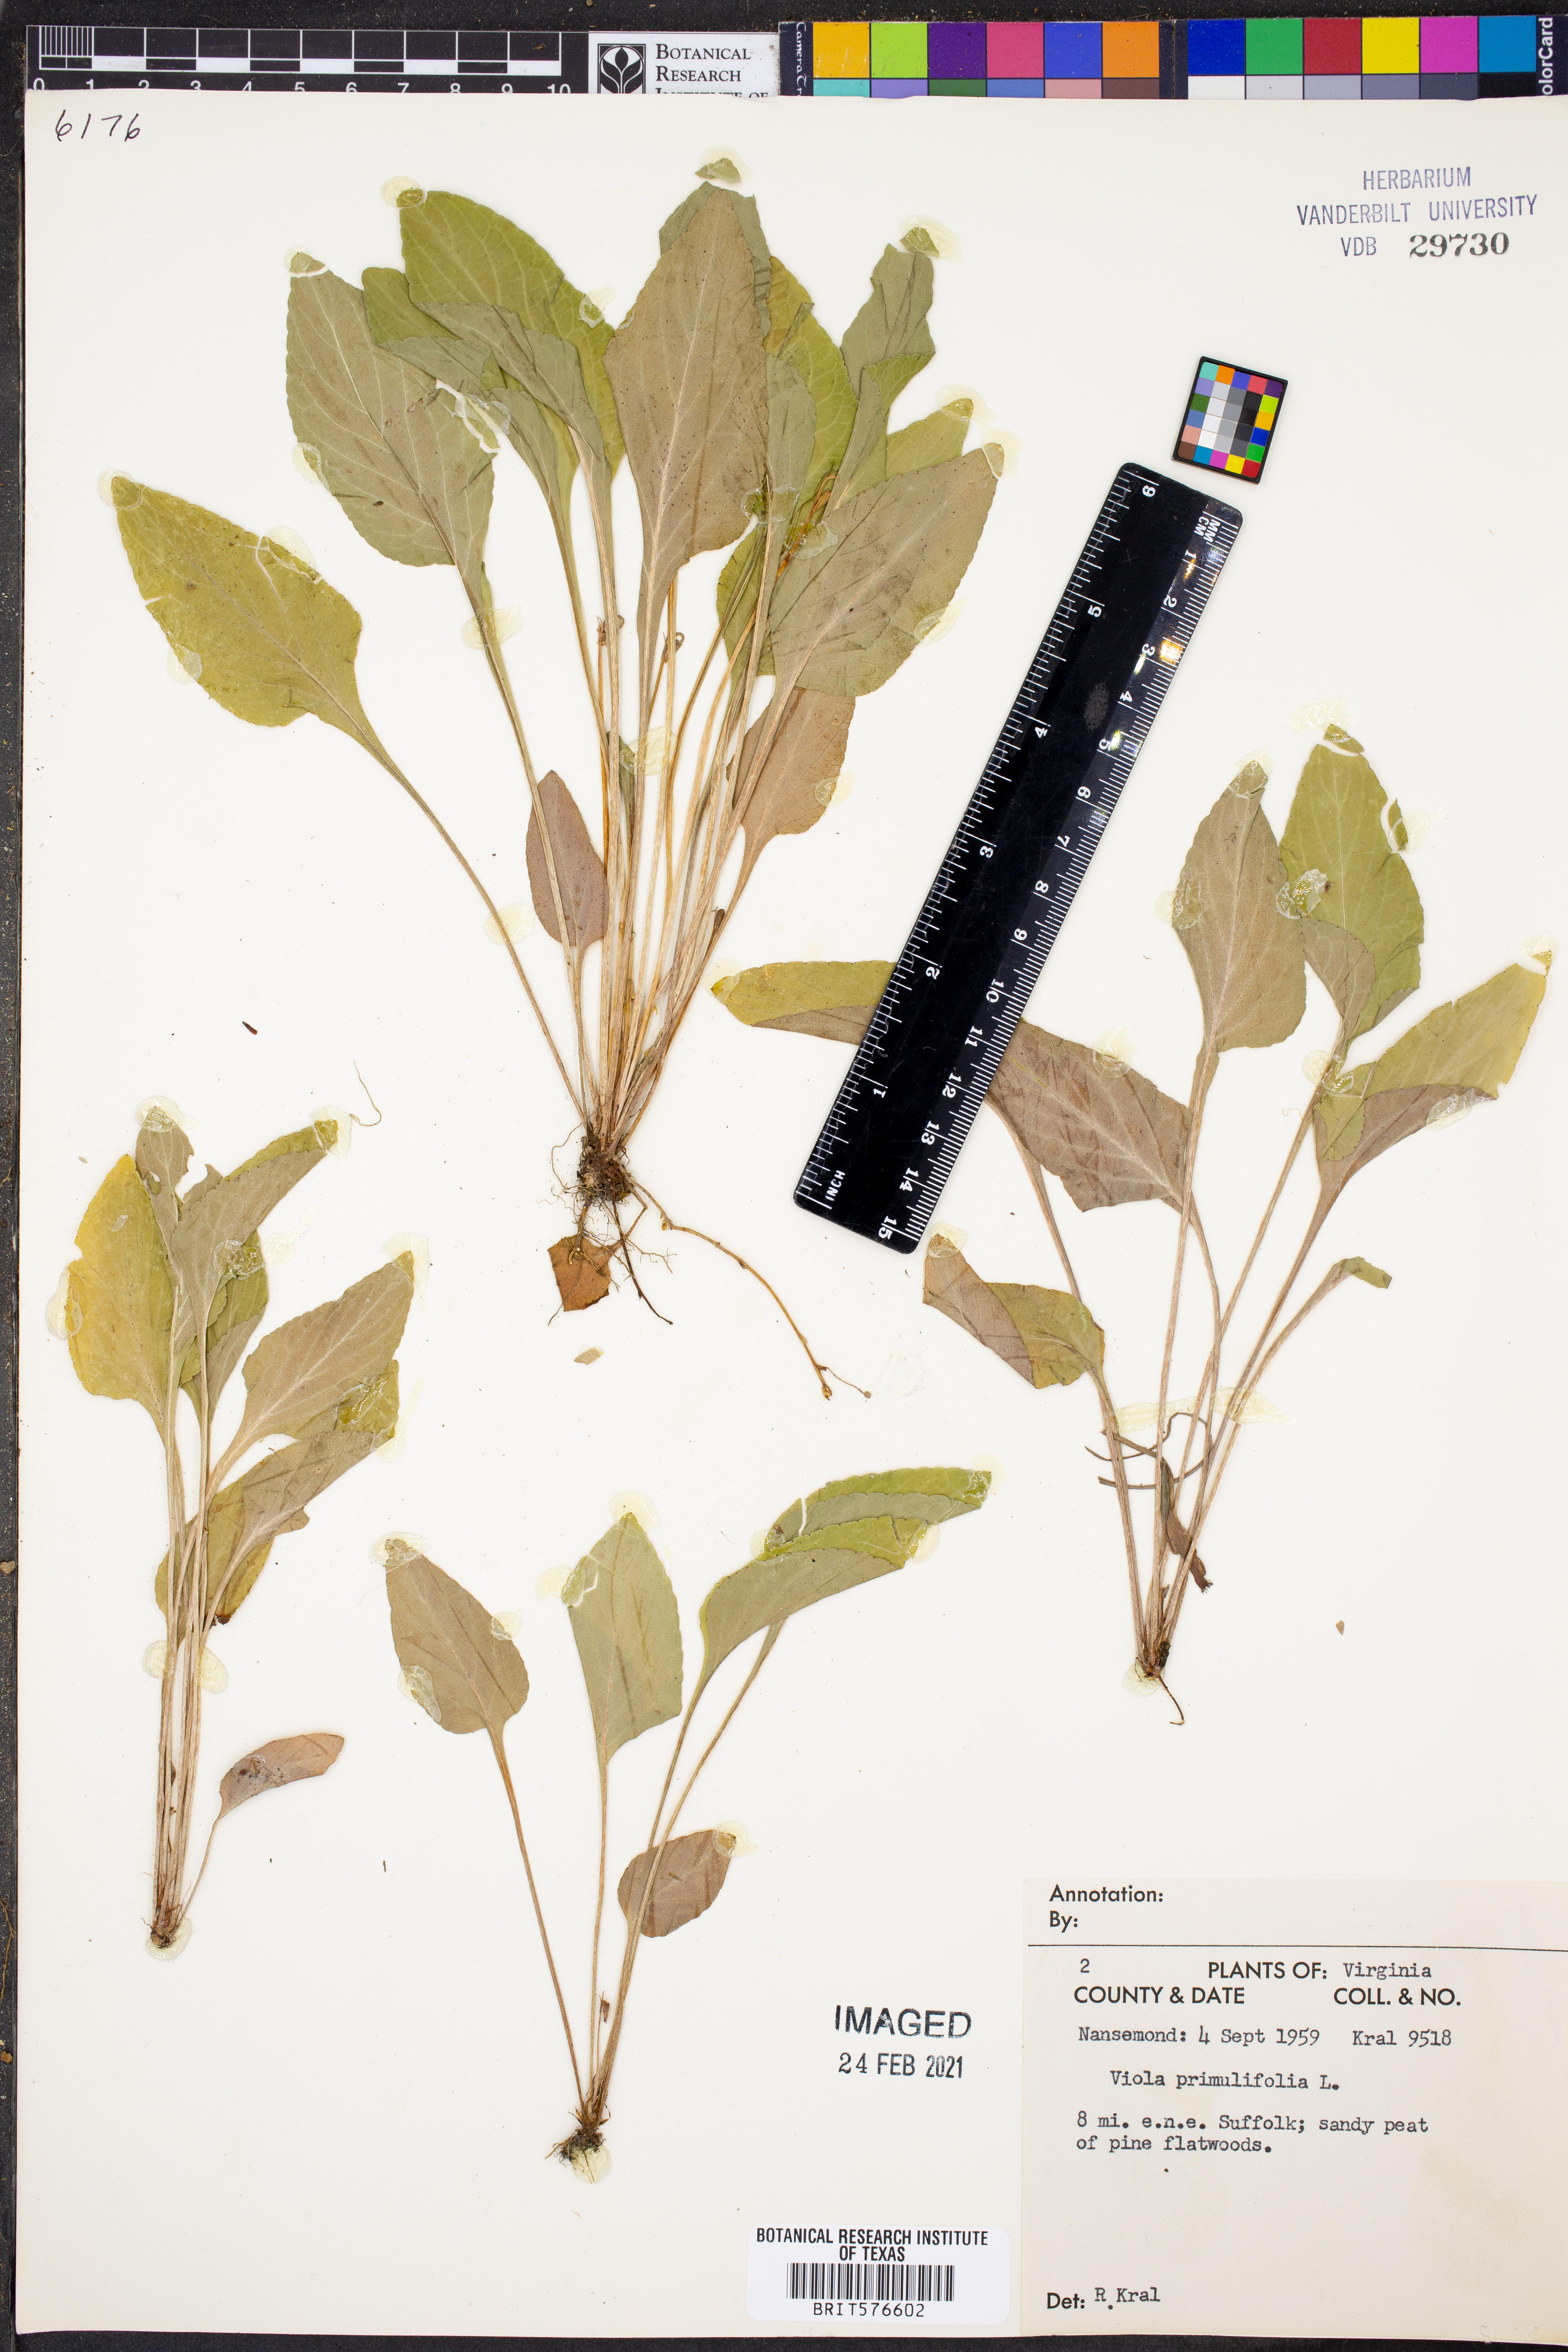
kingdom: Plantae
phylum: Tracheophyta
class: Magnoliopsida
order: Malpighiales
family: Violaceae
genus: Viola
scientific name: Viola primulifolia
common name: Primrose-leaf violet
